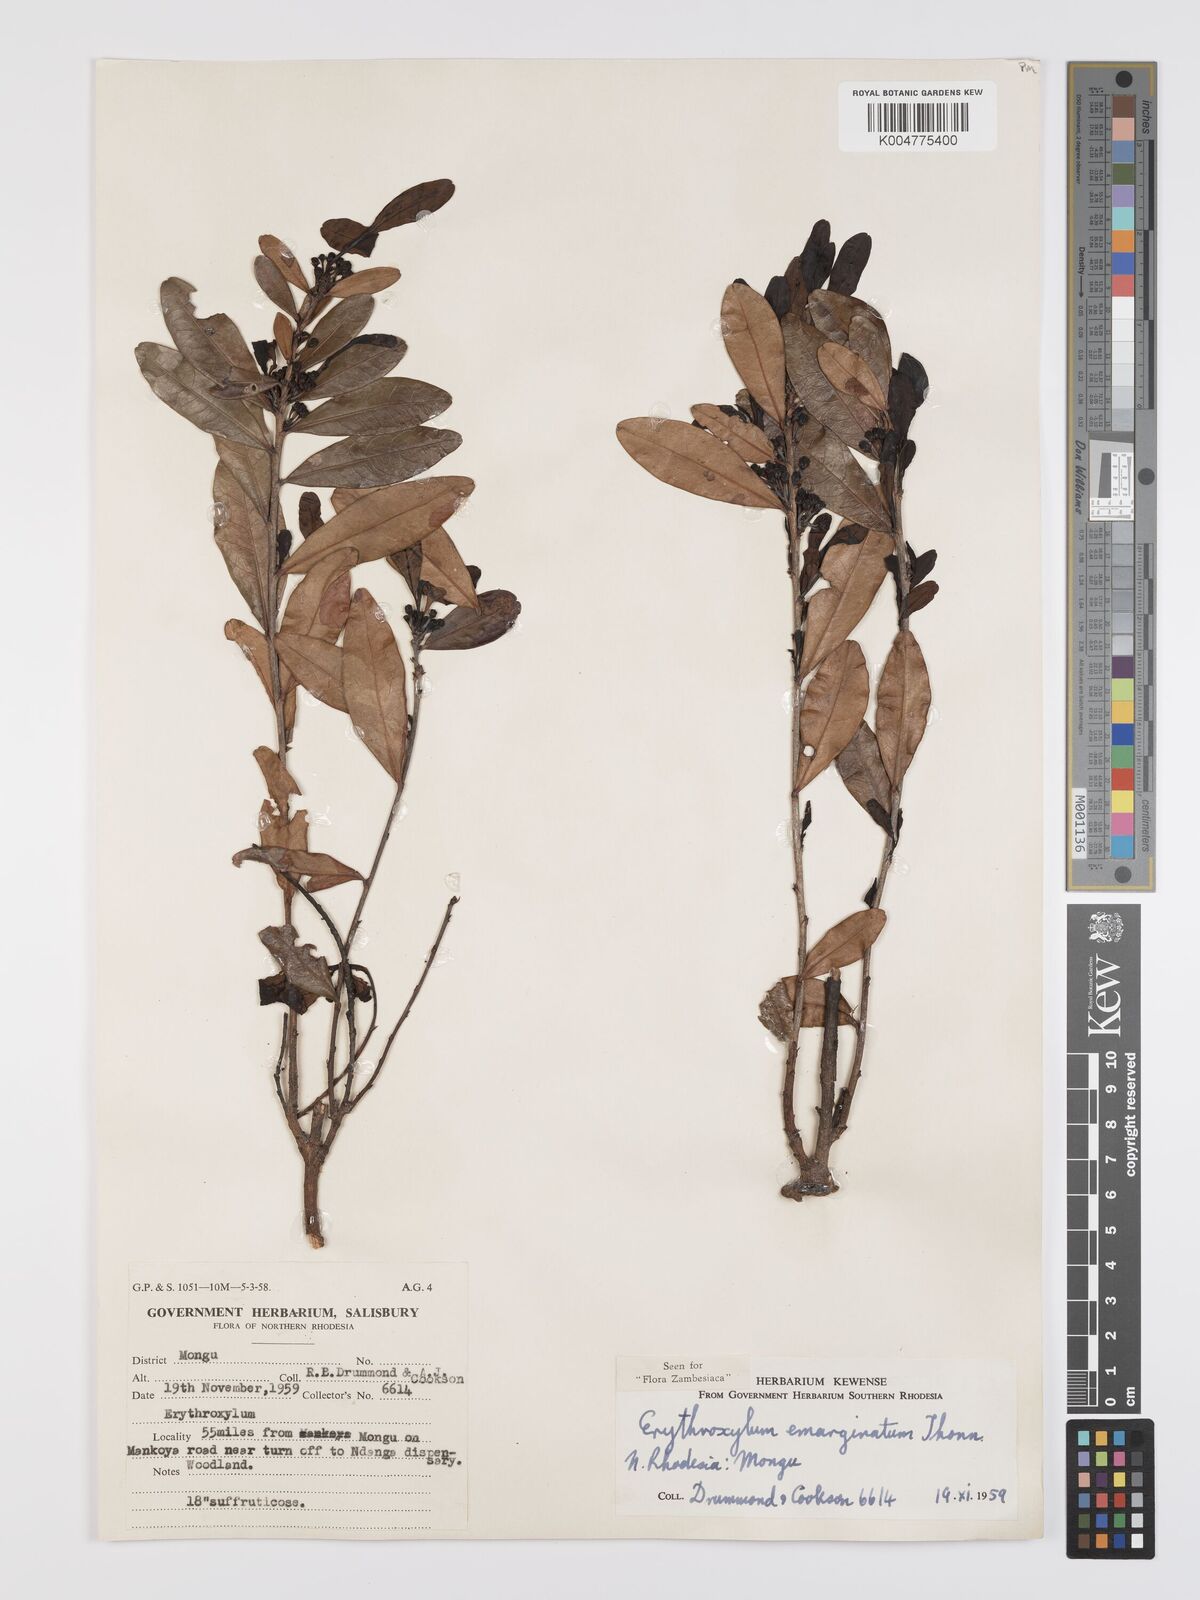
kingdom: Plantae
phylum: Tracheophyta
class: Magnoliopsida
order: Malpighiales
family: Erythroxylaceae
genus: Erythroxylum
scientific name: Erythroxylum emarginatum
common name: African coca-tree
